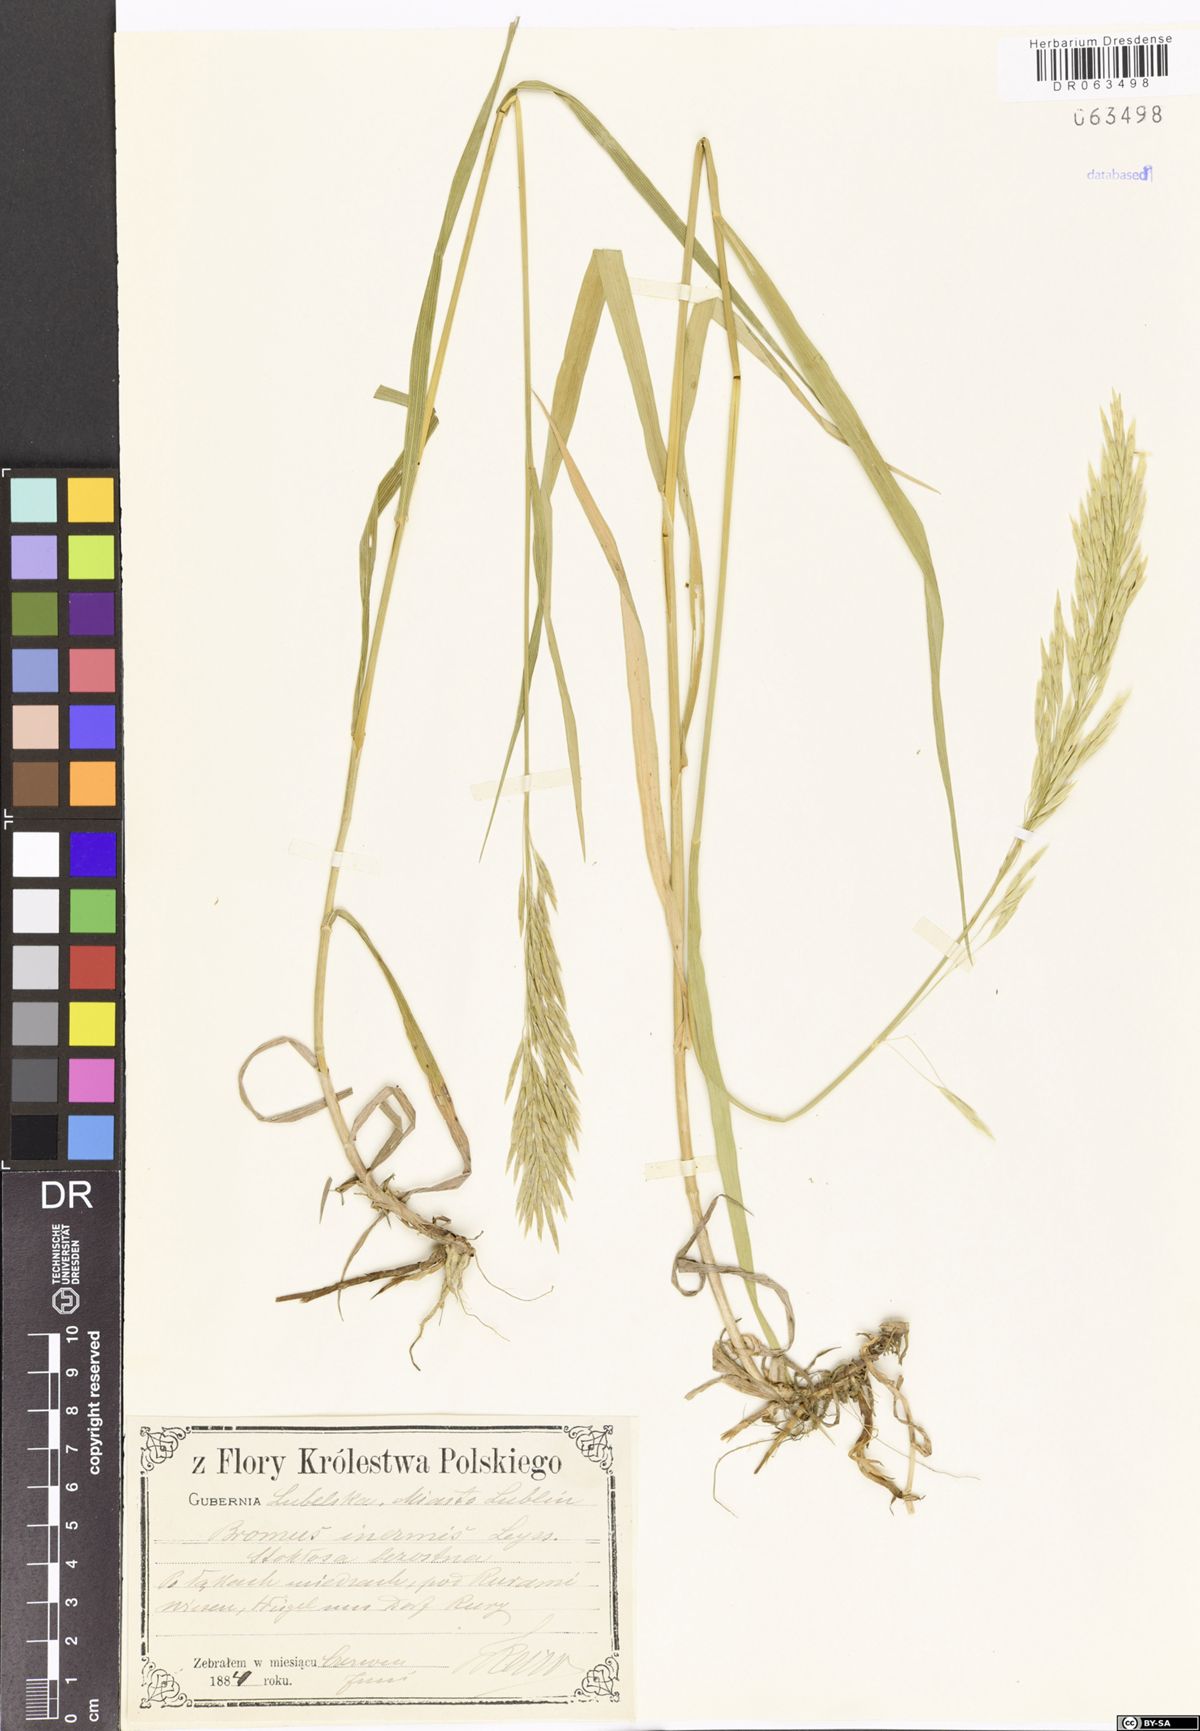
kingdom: Plantae
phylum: Tracheophyta
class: Liliopsida
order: Poales
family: Poaceae
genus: Bromus
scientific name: Bromus inermis
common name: Smooth brome
